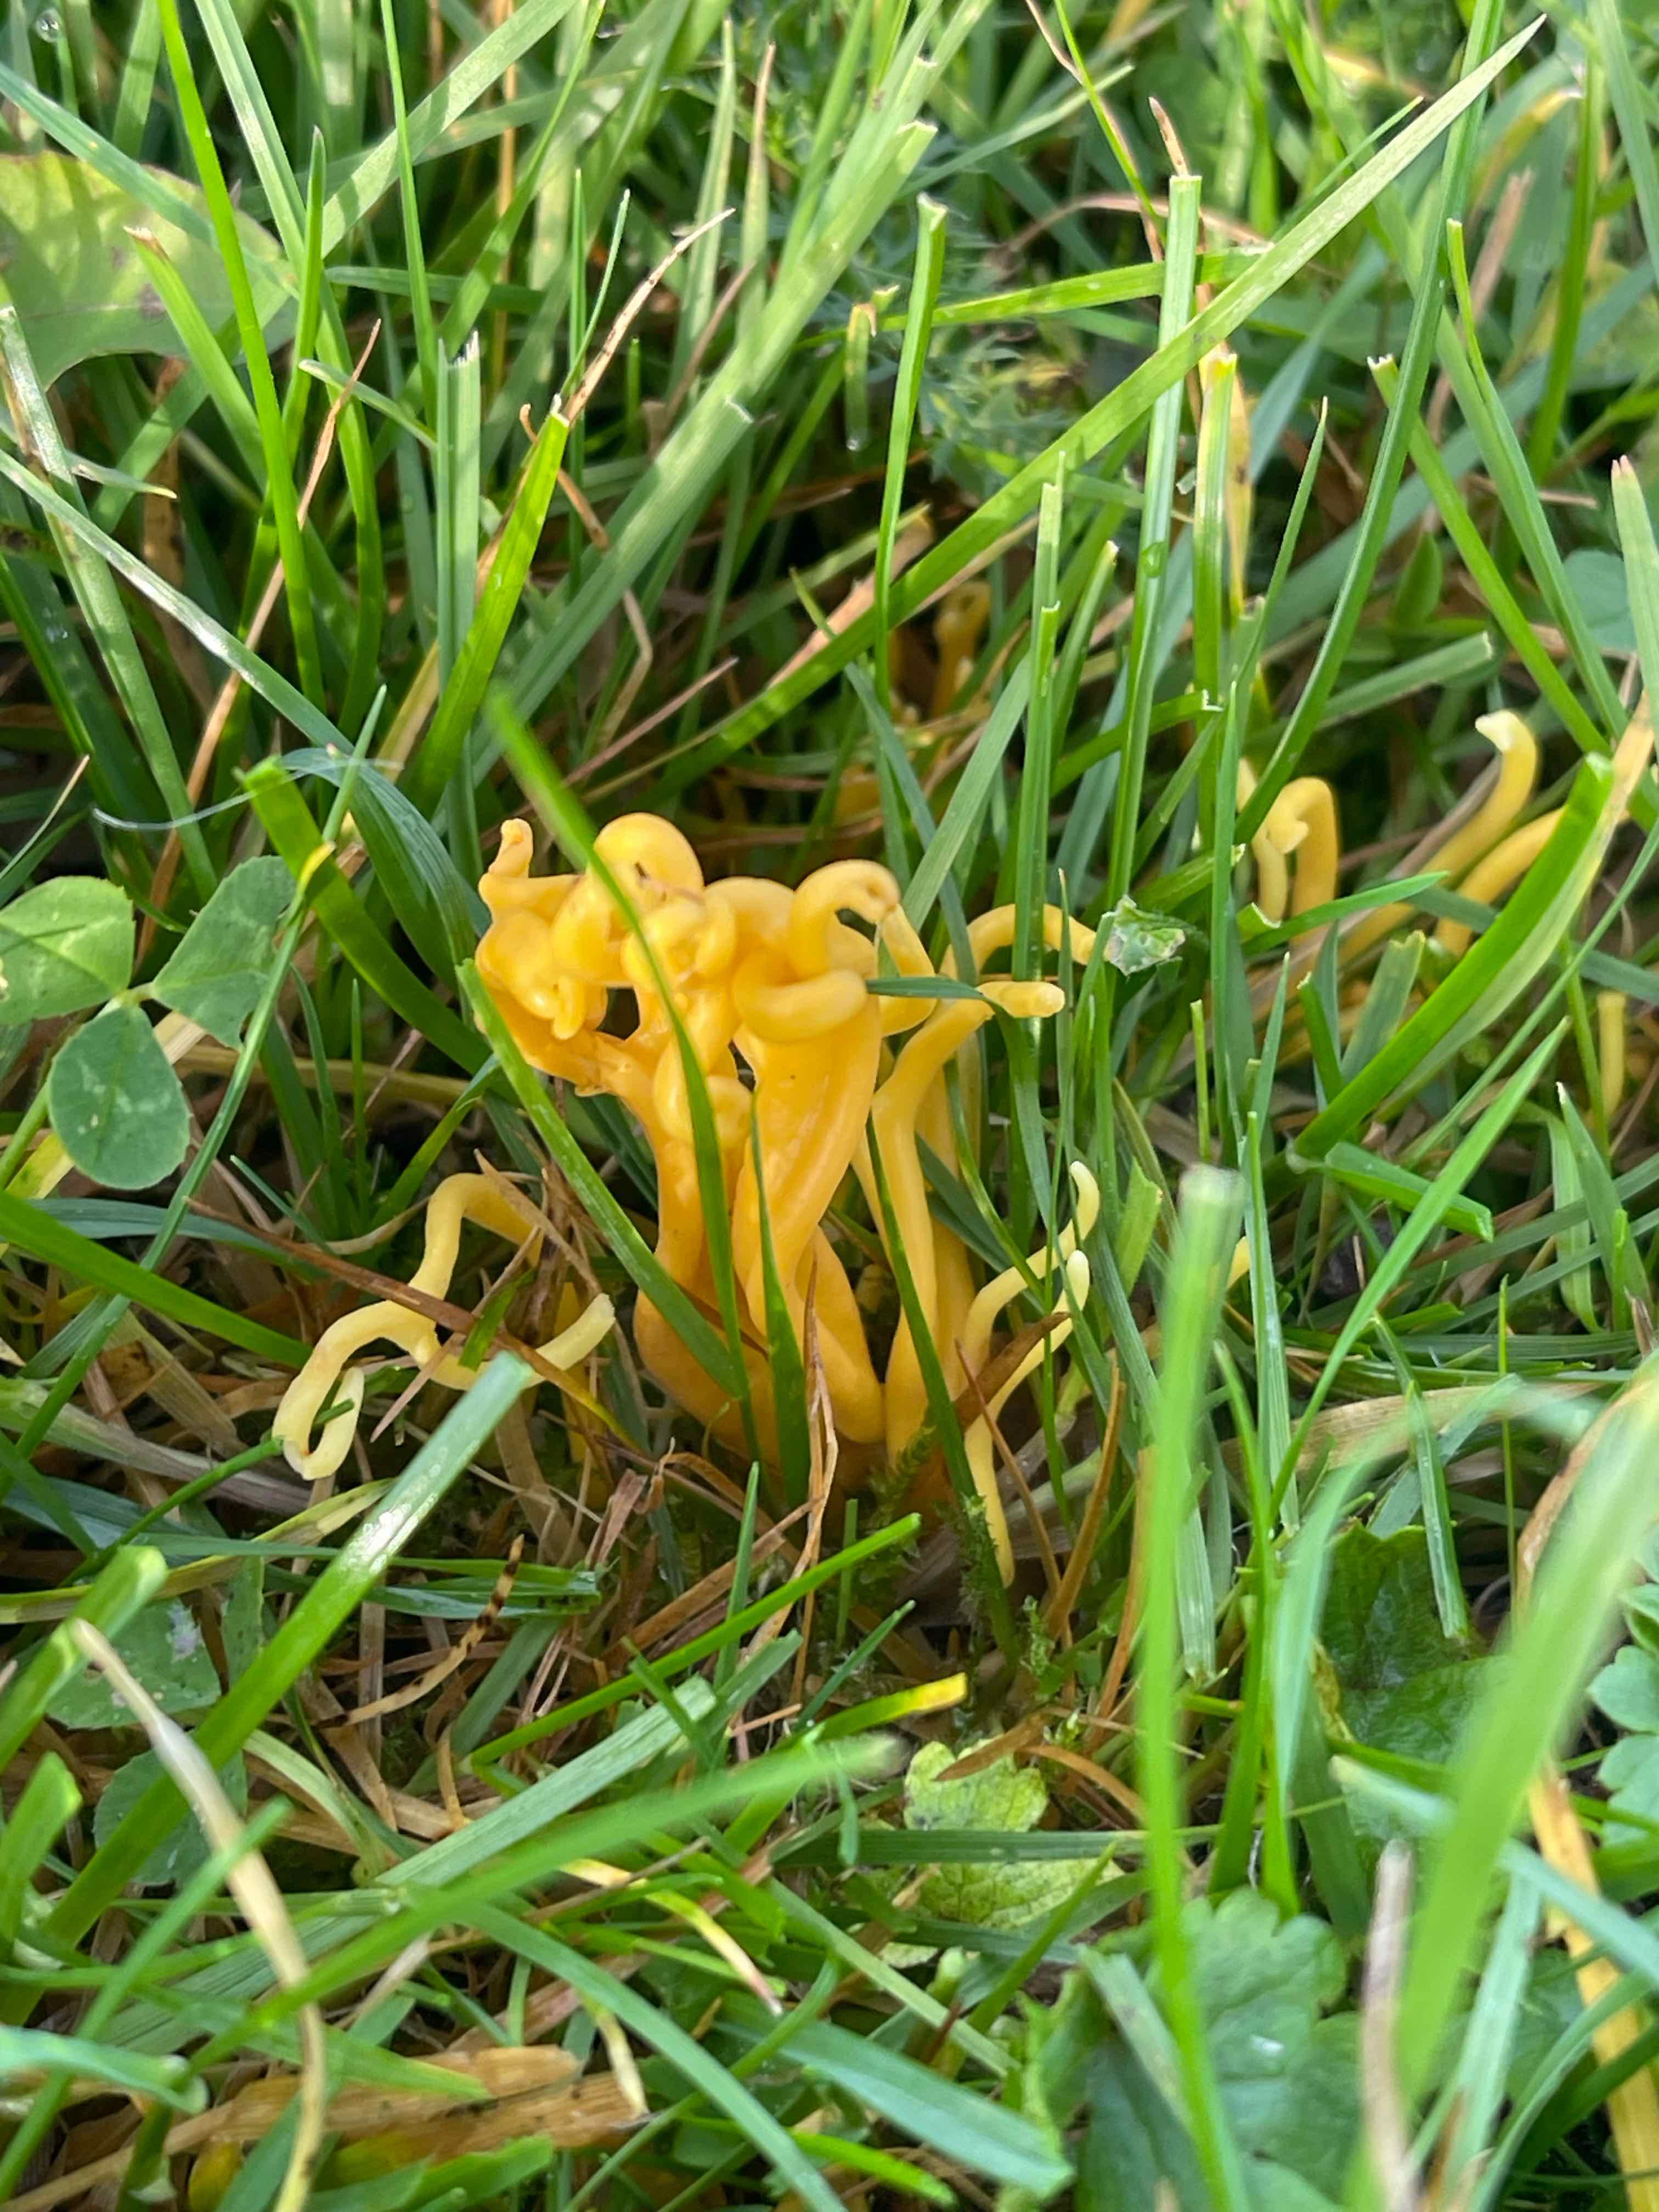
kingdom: Fungi
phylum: Basidiomycota
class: Agaricomycetes
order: Agaricales
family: Clavariaceae
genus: Clavulinopsis
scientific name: Clavulinopsis corniculata
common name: eng-køllesvamp
